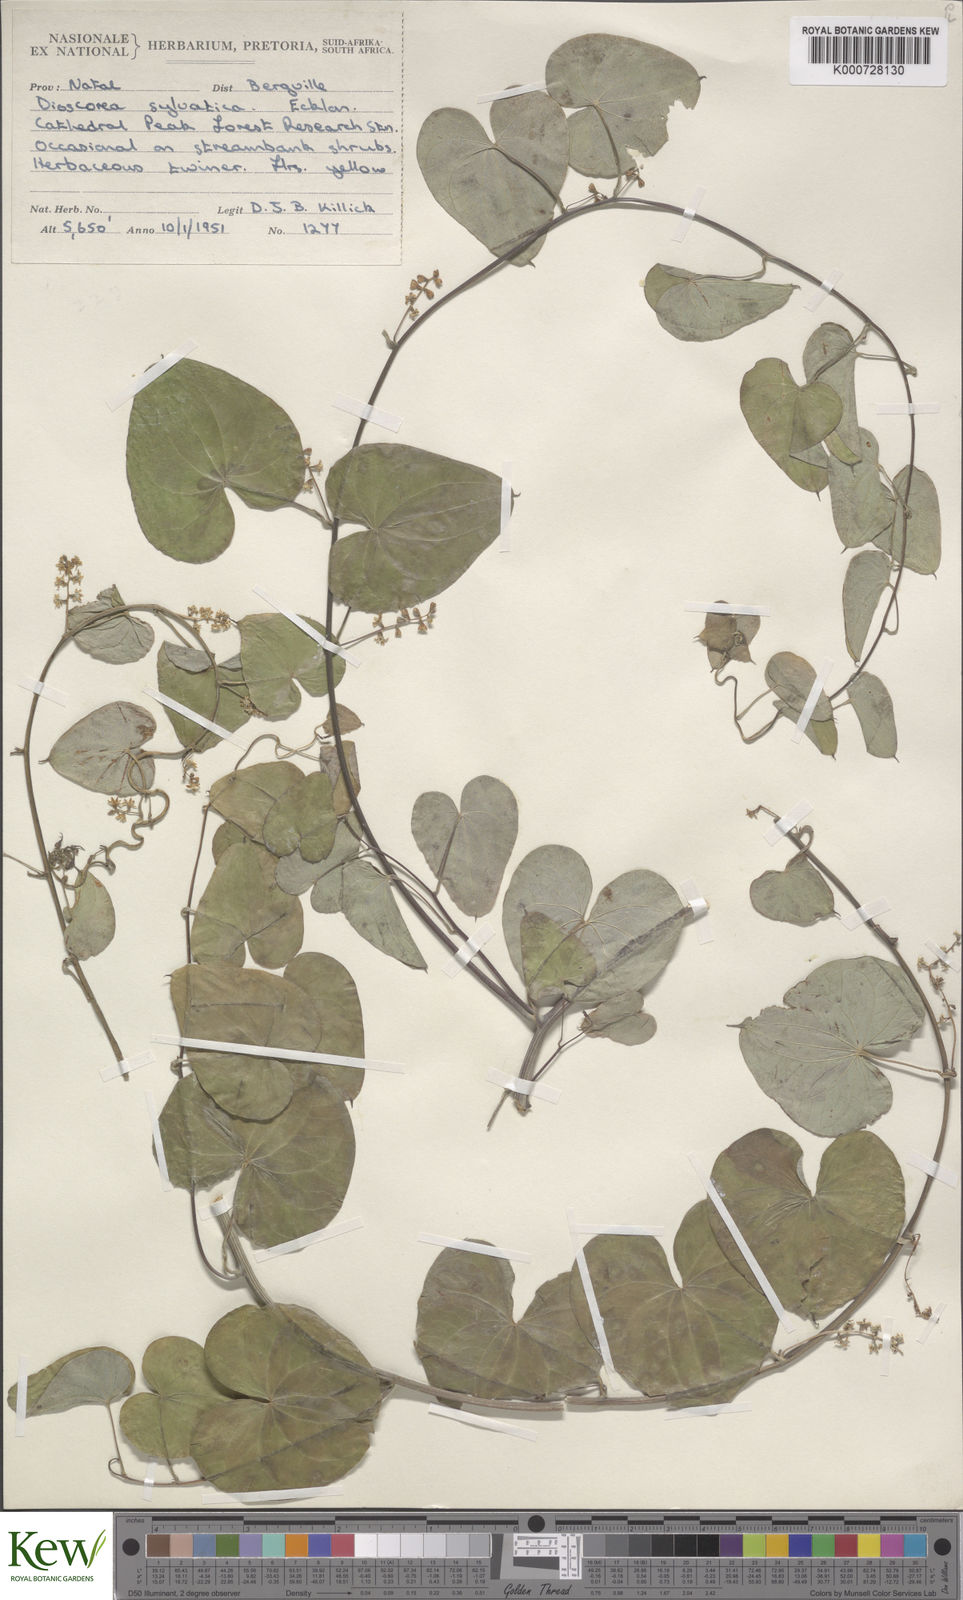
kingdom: Plantae
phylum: Tracheophyta
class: Liliopsida
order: Dioscoreales
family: Dioscoreaceae
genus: Dioscorea
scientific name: Dioscorea sylvatica
